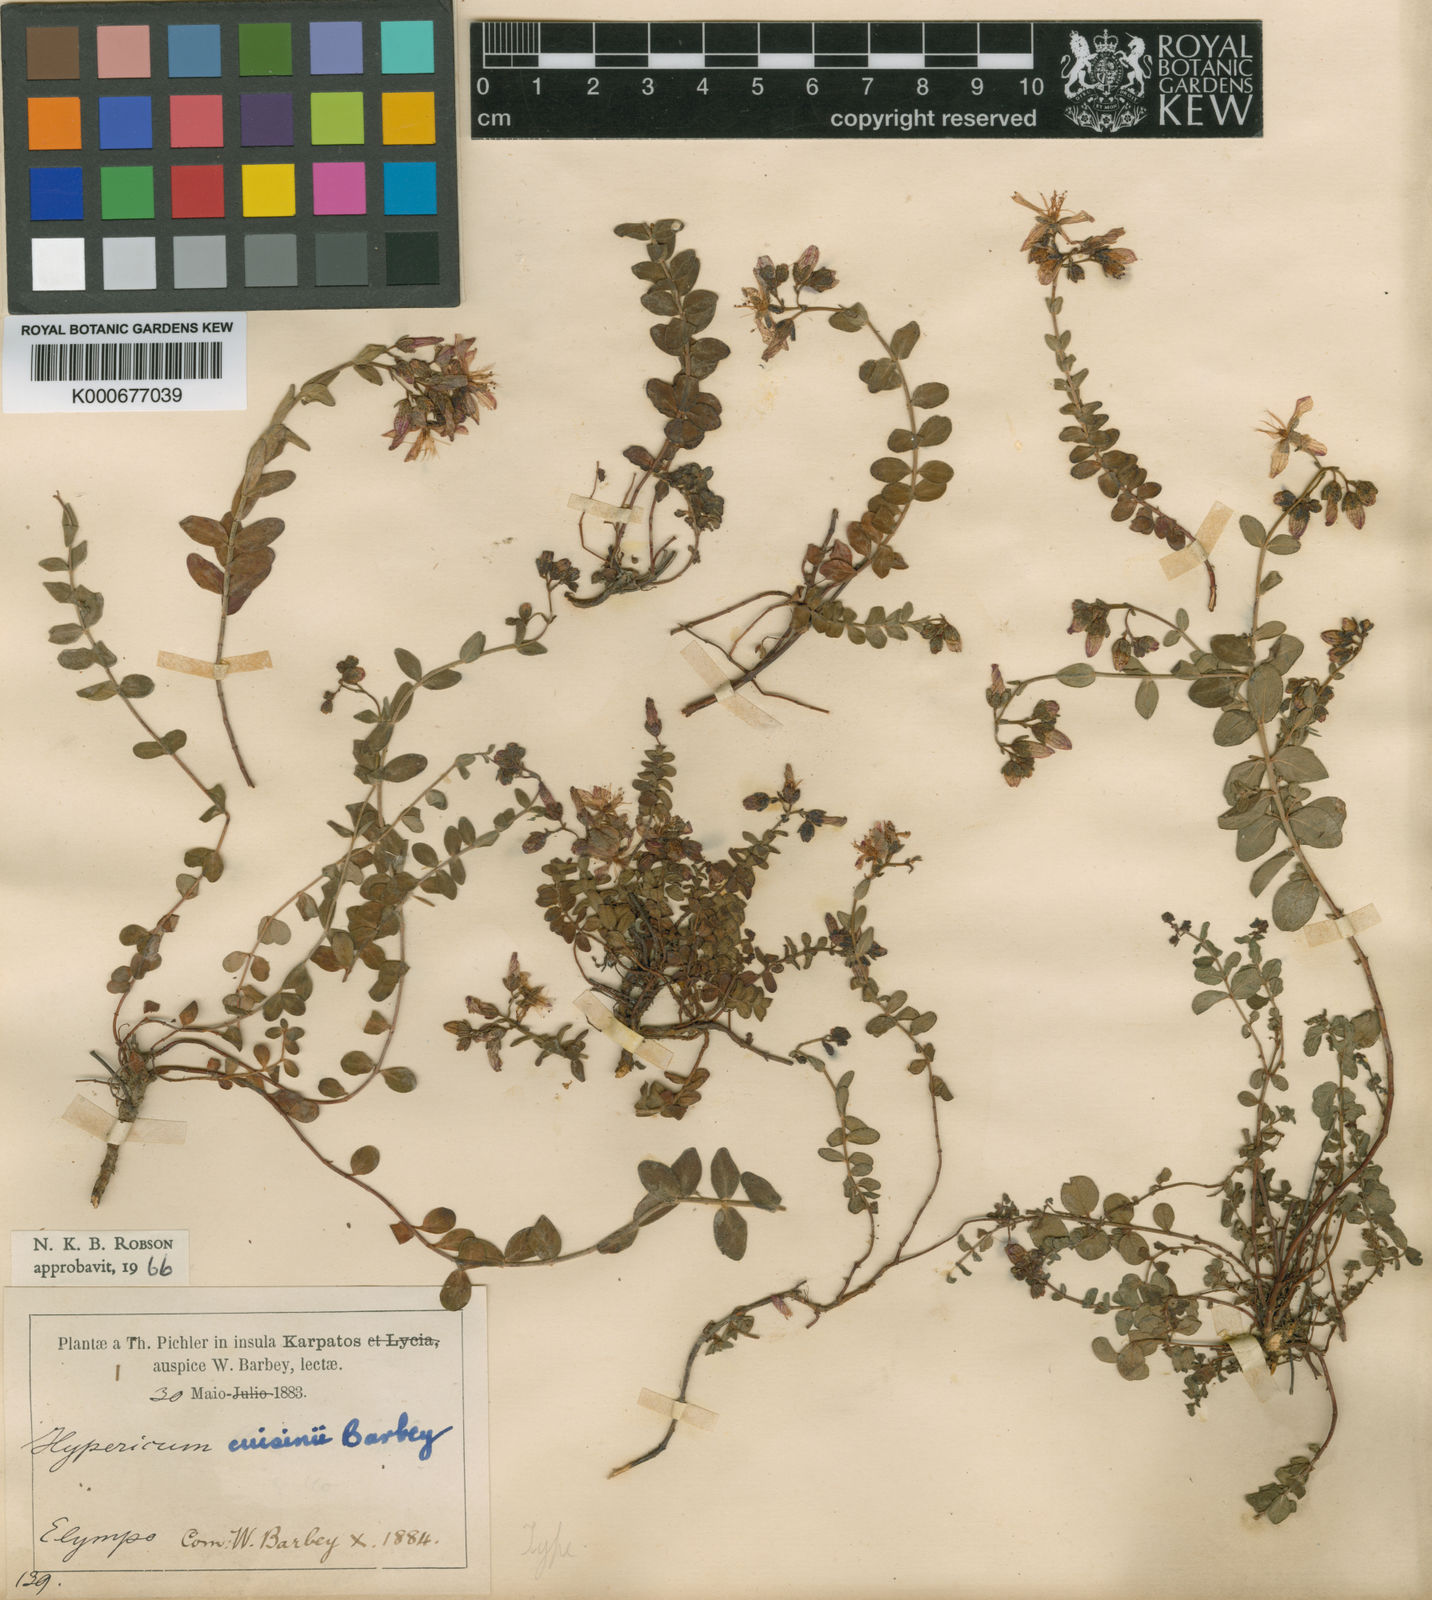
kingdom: Plantae
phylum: Tracheophyta
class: Magnoliopsida
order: Malpighiales
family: Hypericaceae
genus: Hypericum
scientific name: Hypericum cuisinii
